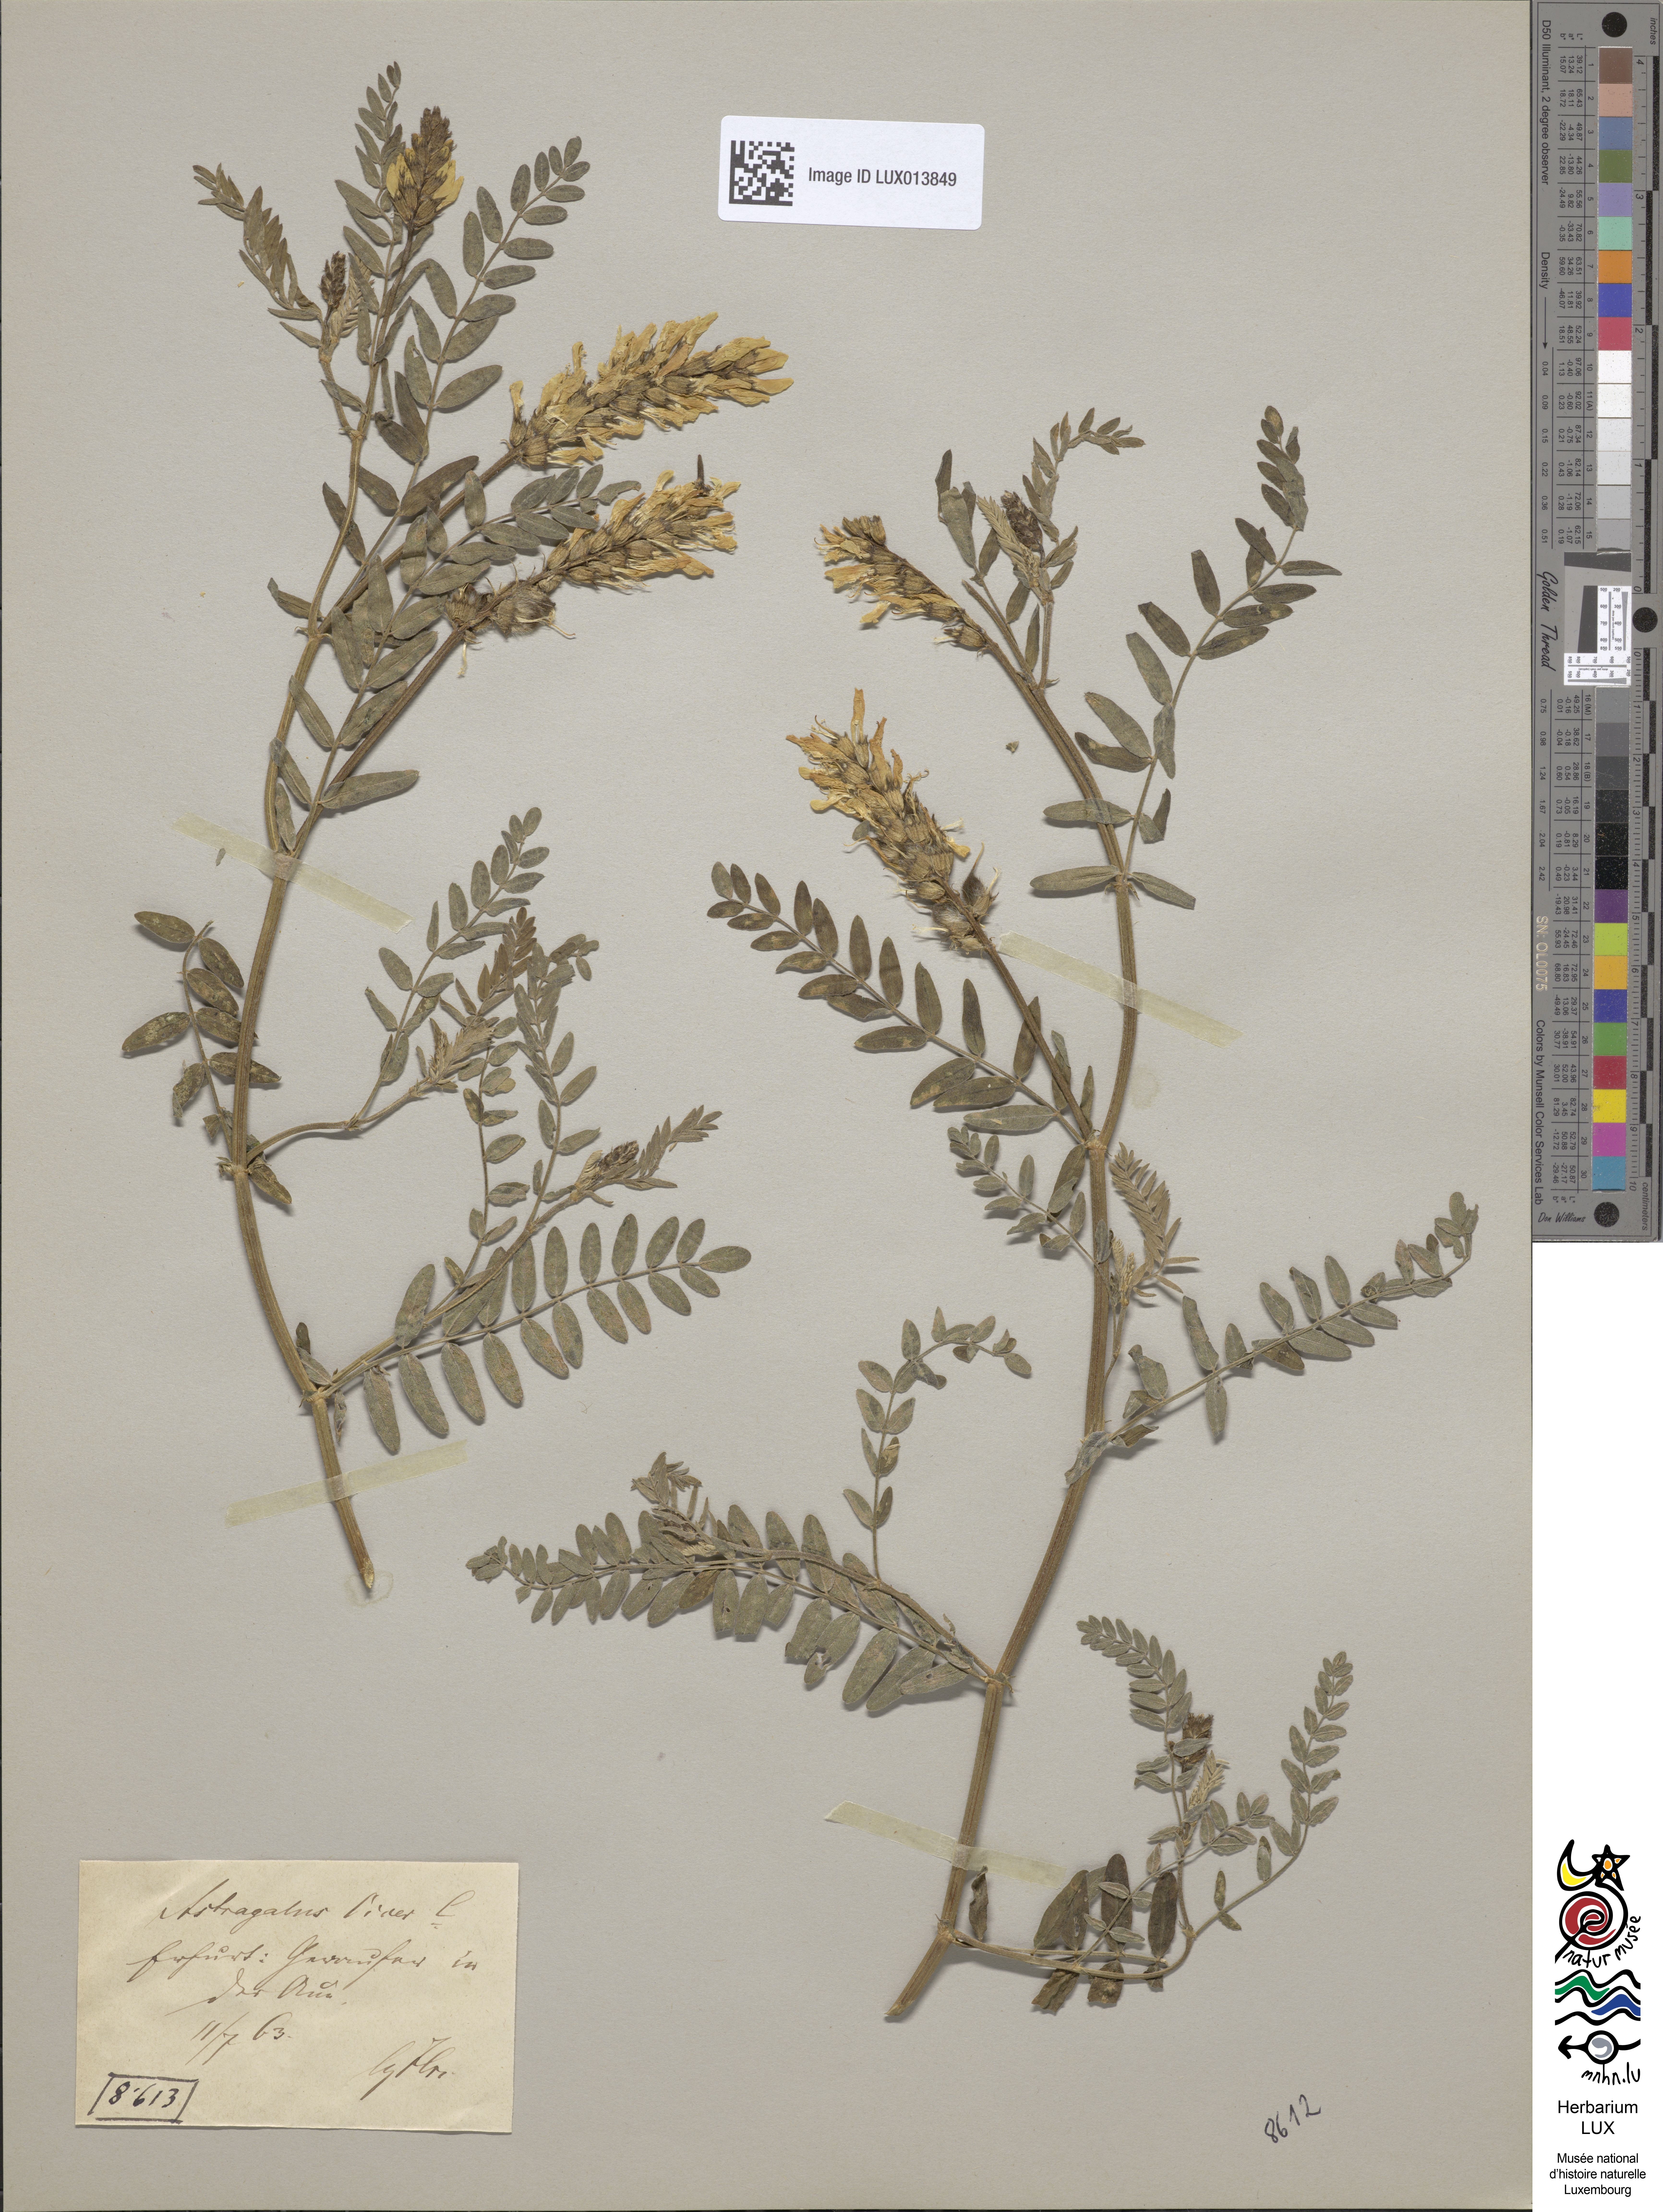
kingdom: Plantae
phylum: Tracheophyta
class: Magnoliopsida
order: Fabales
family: Fabaceae
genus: Astragalus
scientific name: Astragalus cicer
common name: Chick-pea milk-vetch
